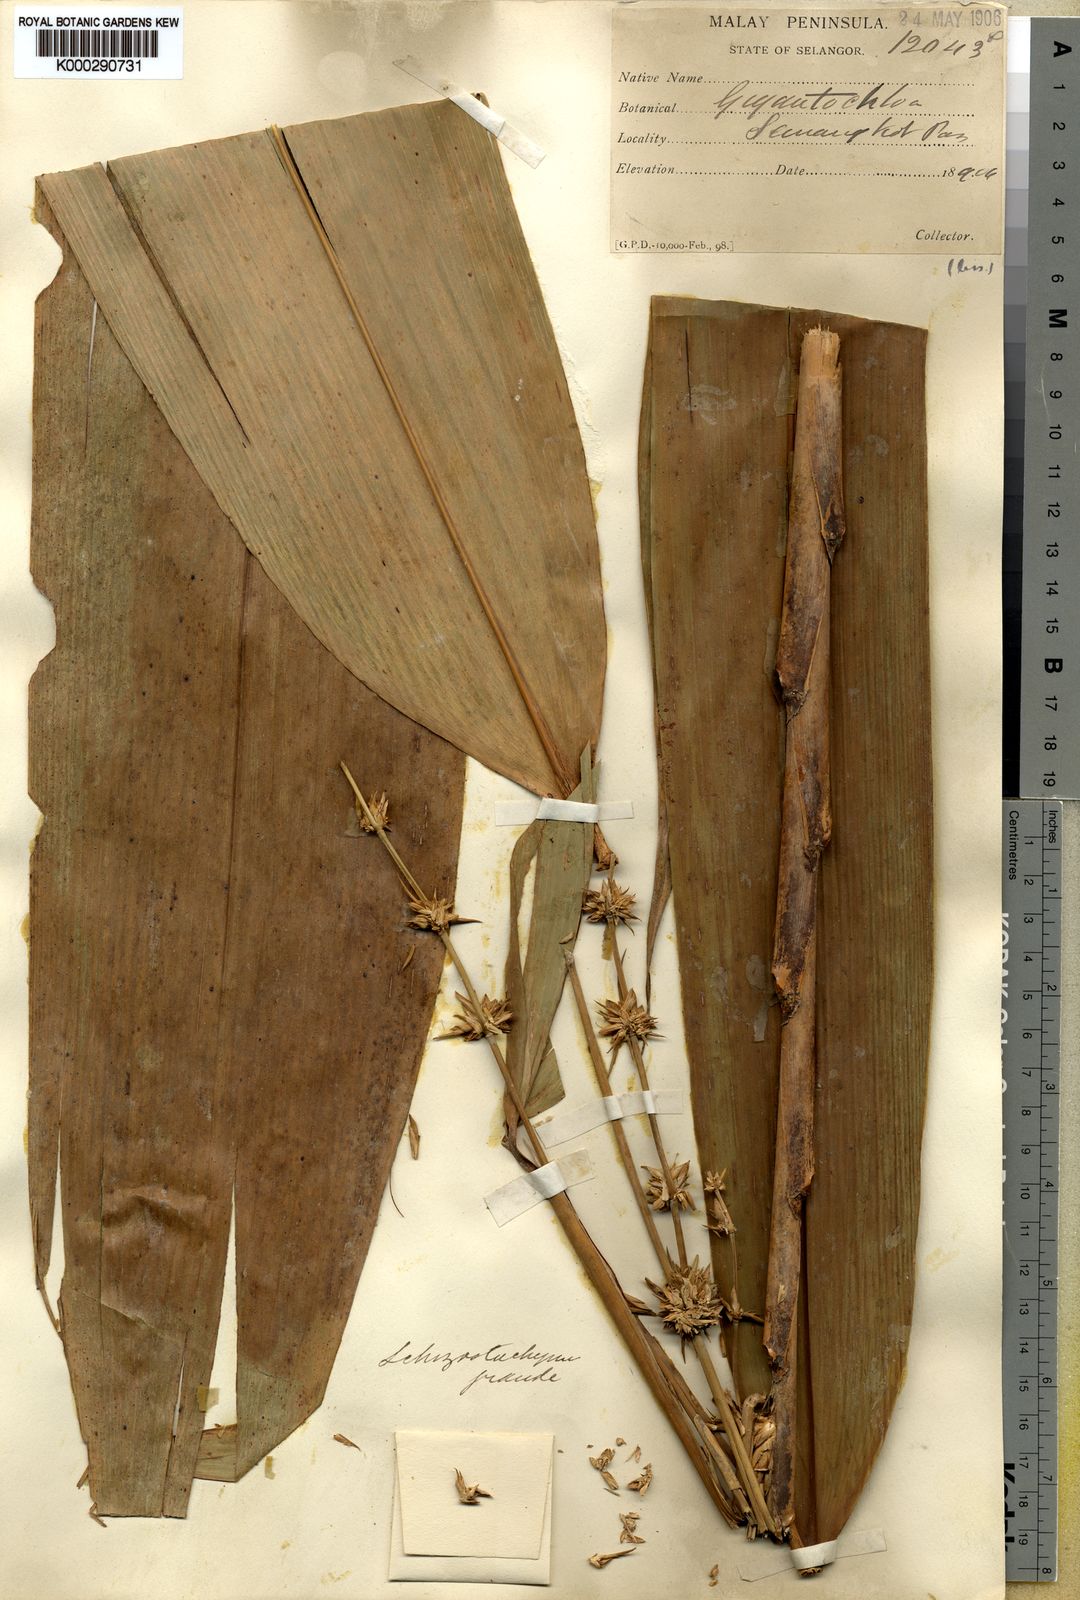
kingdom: Plantae
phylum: Tracheophyta
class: Liliopsida
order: Poales
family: Poaceae
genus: Schizostachyum
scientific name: Schizostachyum grande
